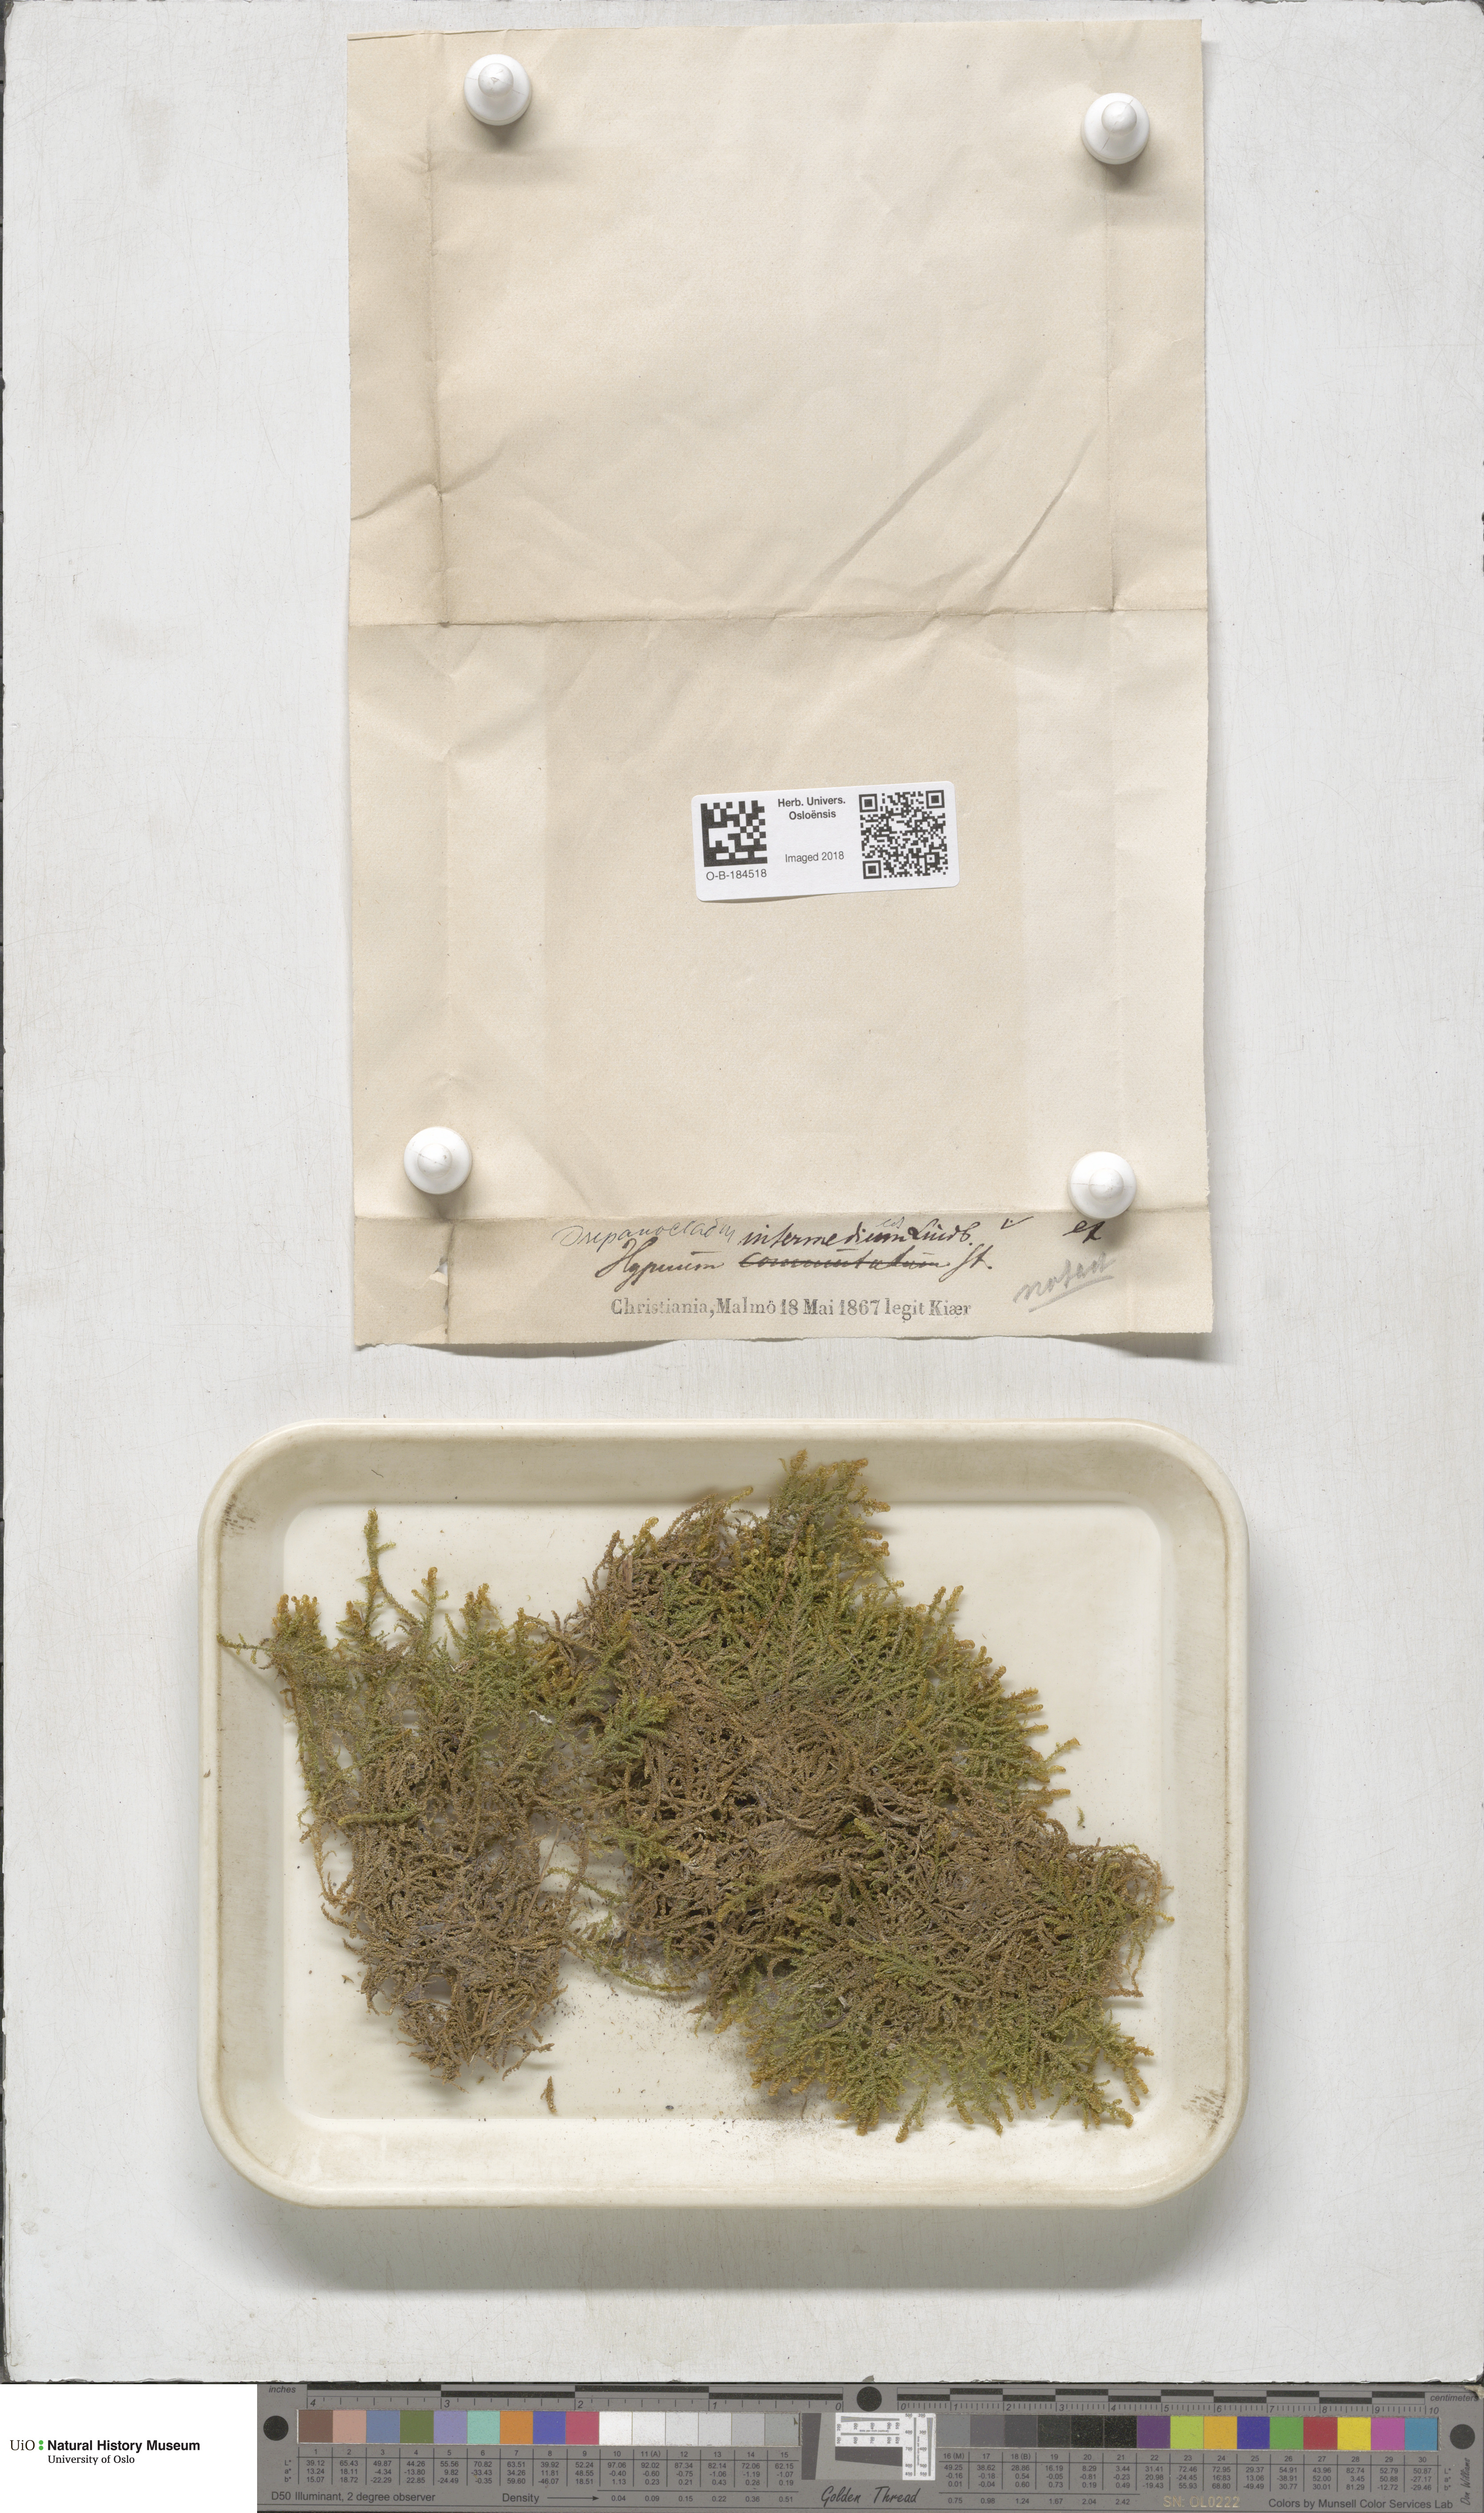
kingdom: Plantae
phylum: Bryophyta
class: Bryopsida
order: Hypnales
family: Scorpidiaceae
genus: Scorpidium
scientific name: Scorpidium cossonii
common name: Cosson's hook moss
